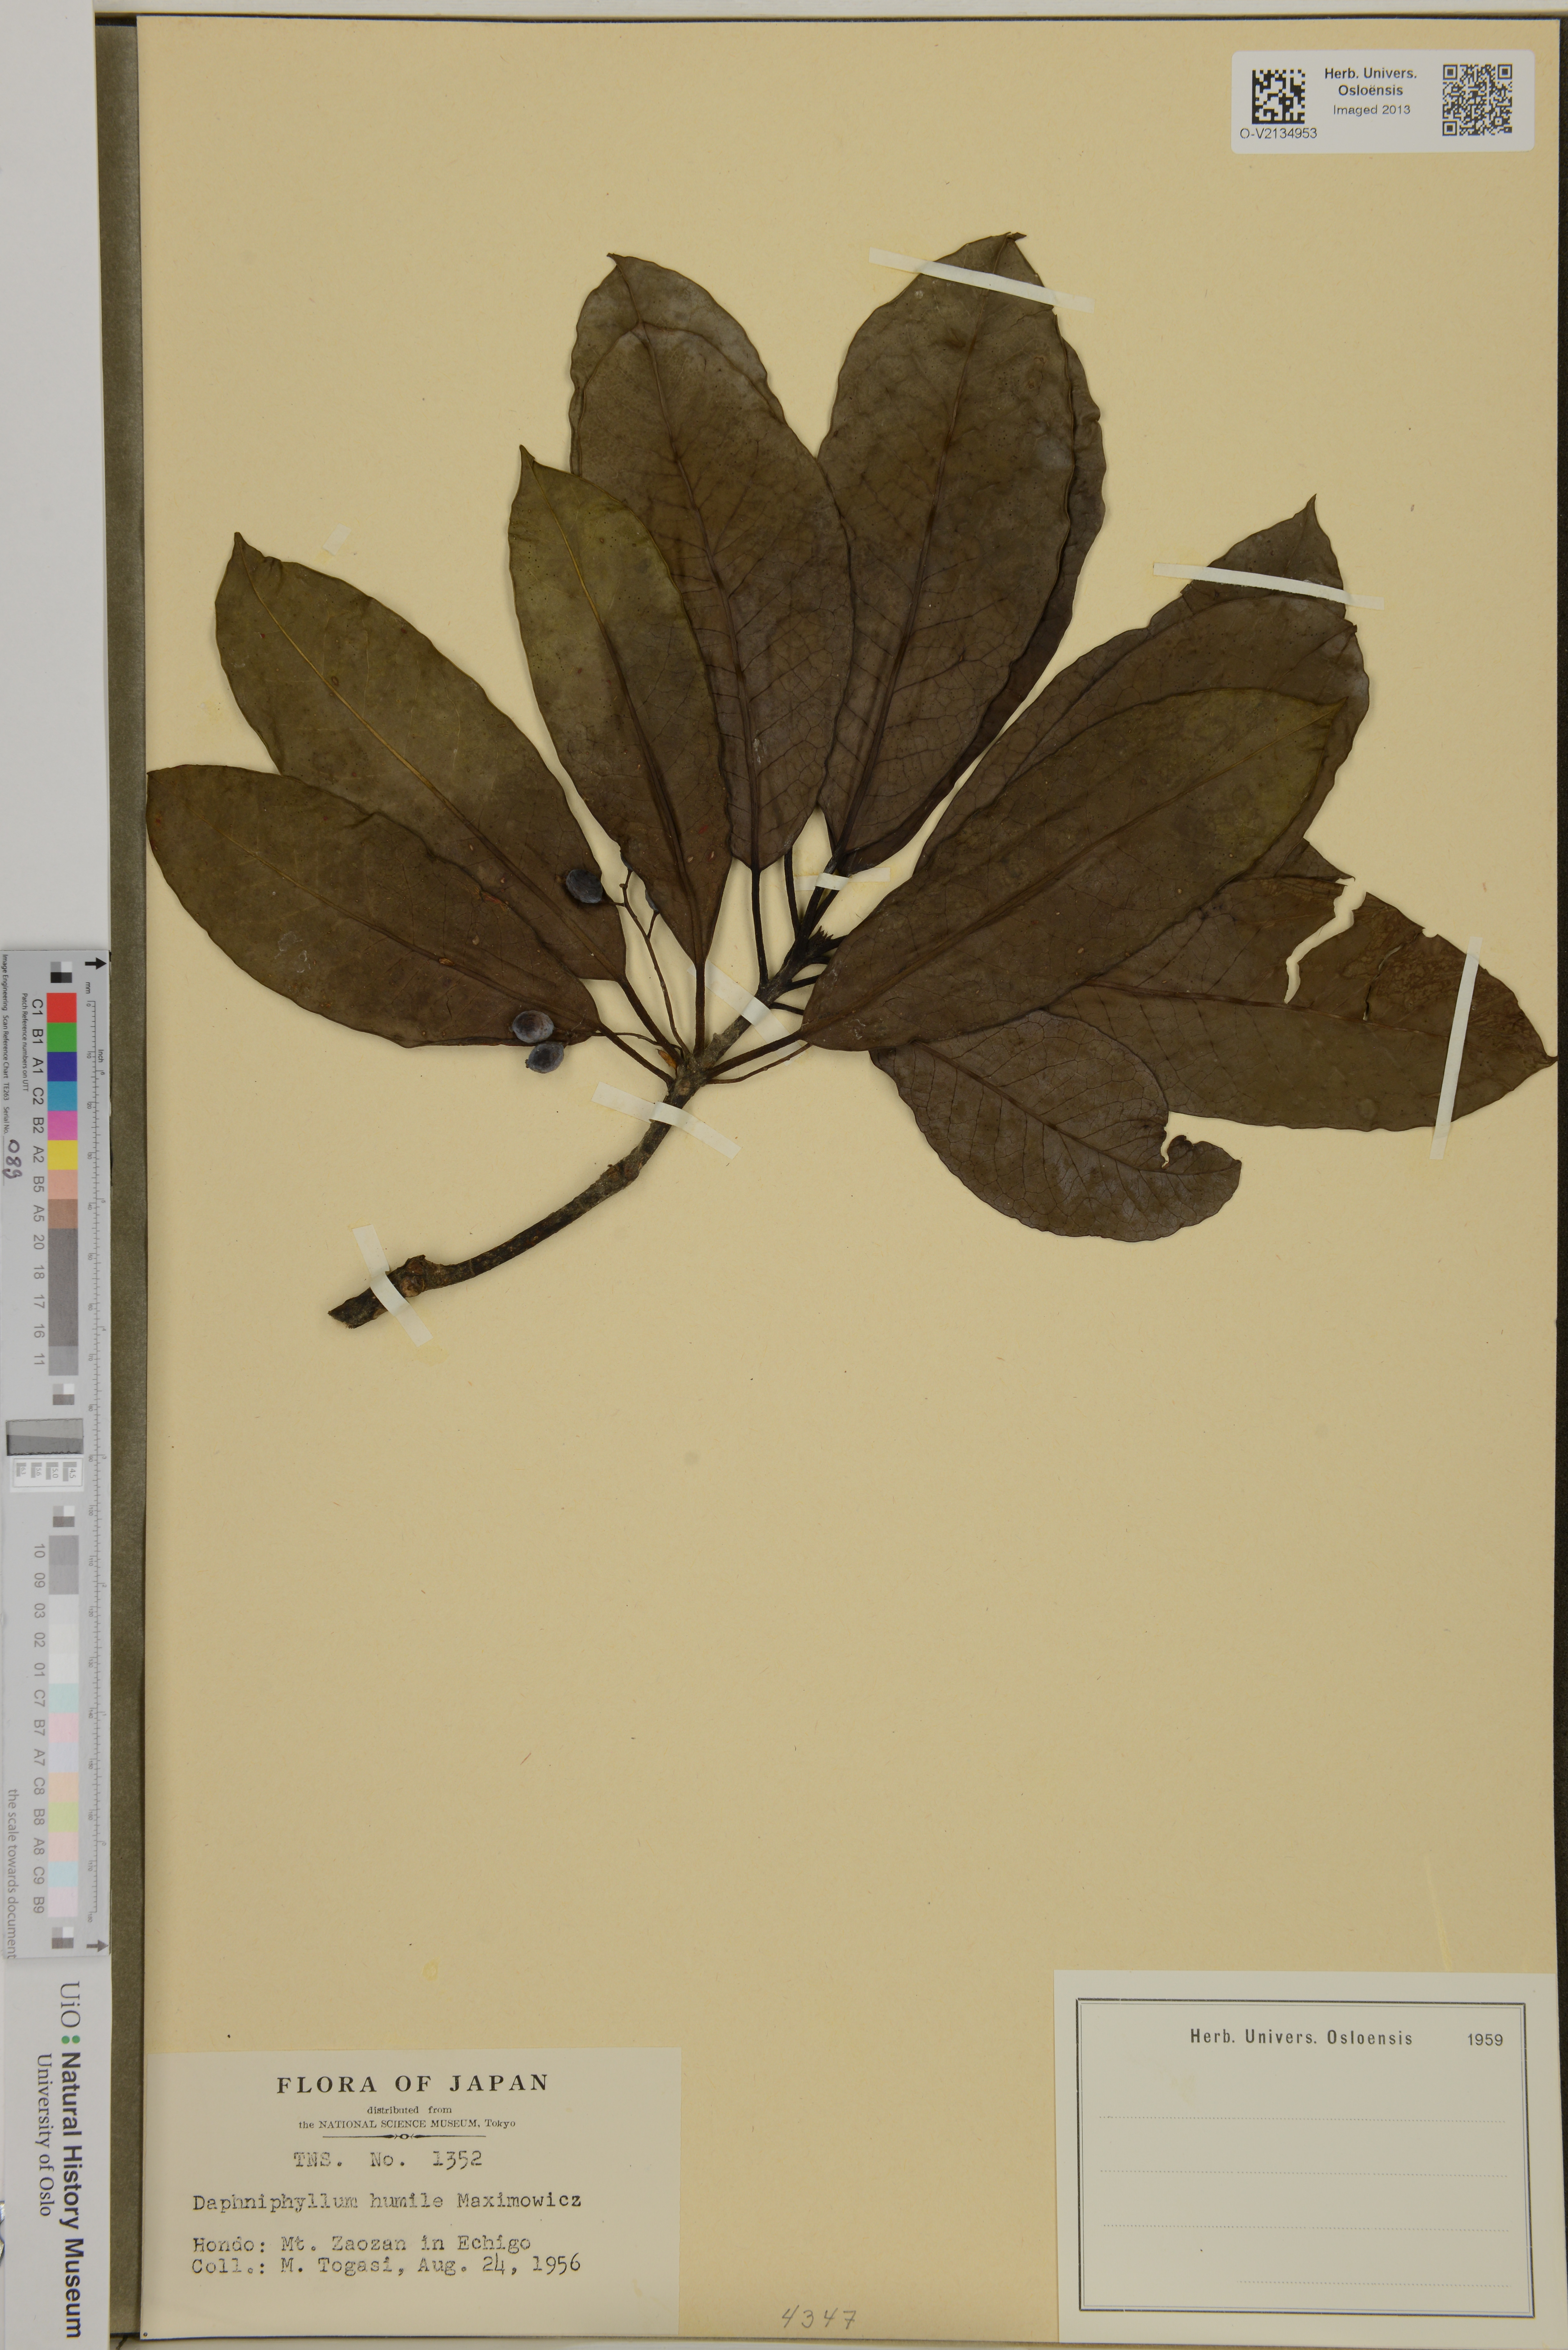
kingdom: Plantae
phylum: Tracheophyta
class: Magnoliopsida
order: Saxifragales
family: Daphniphyllaceae
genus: Daphniphyllum
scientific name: Daphniphyllum macropodum
